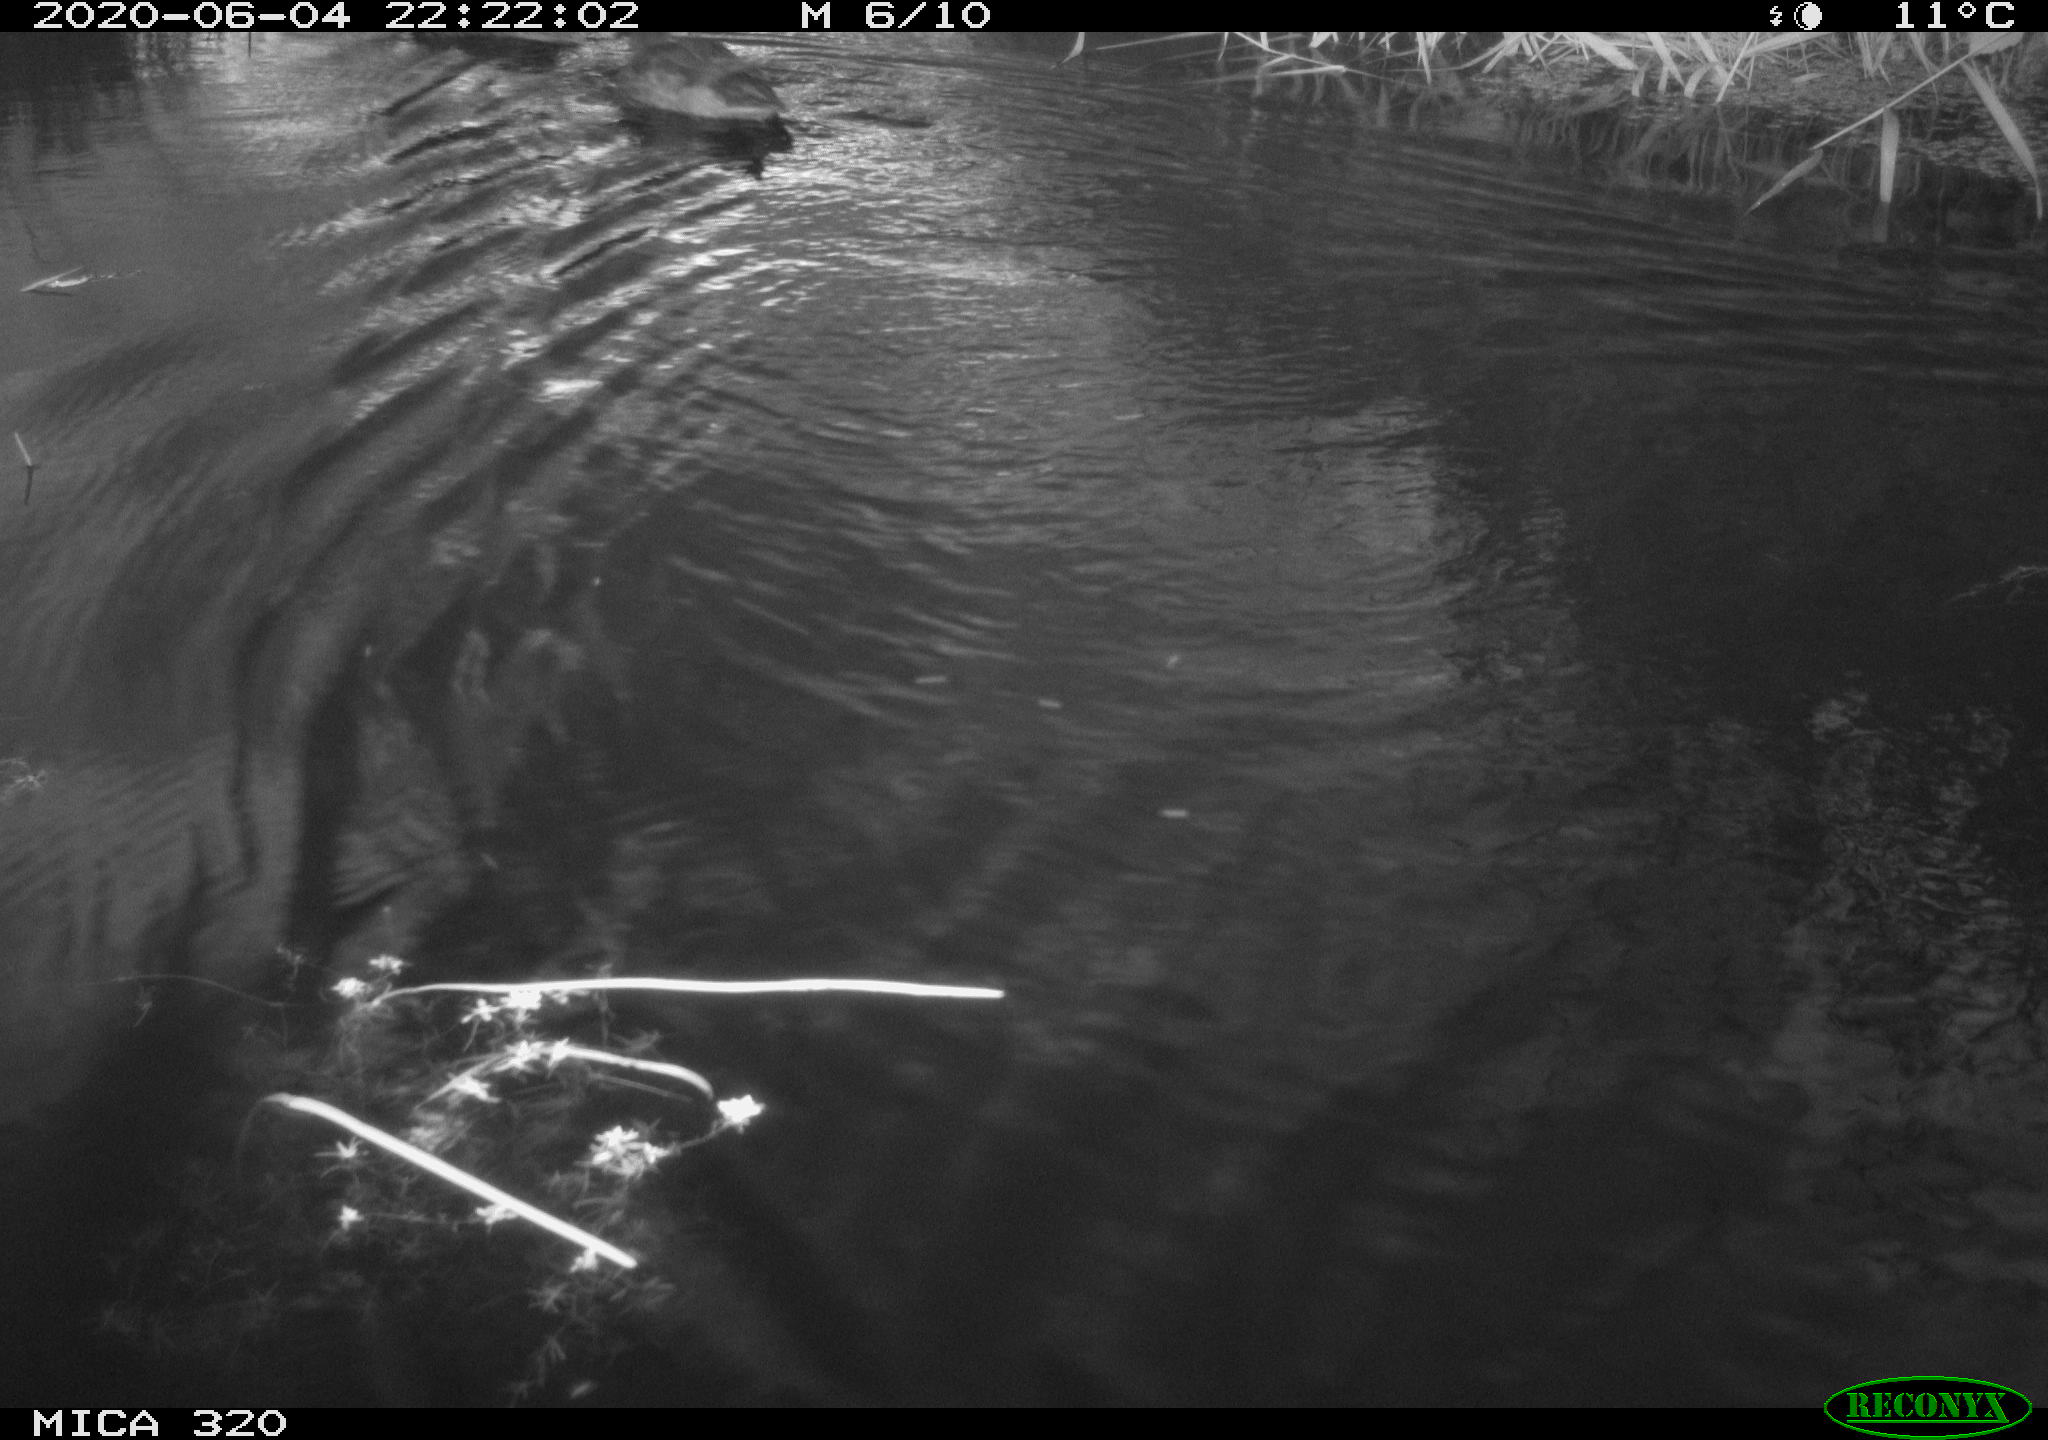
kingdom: Animalia
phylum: Chordata
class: Aves
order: Anseriformes
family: Anatidae
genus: Anas
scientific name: Anas platyrhynchos
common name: Mallard
